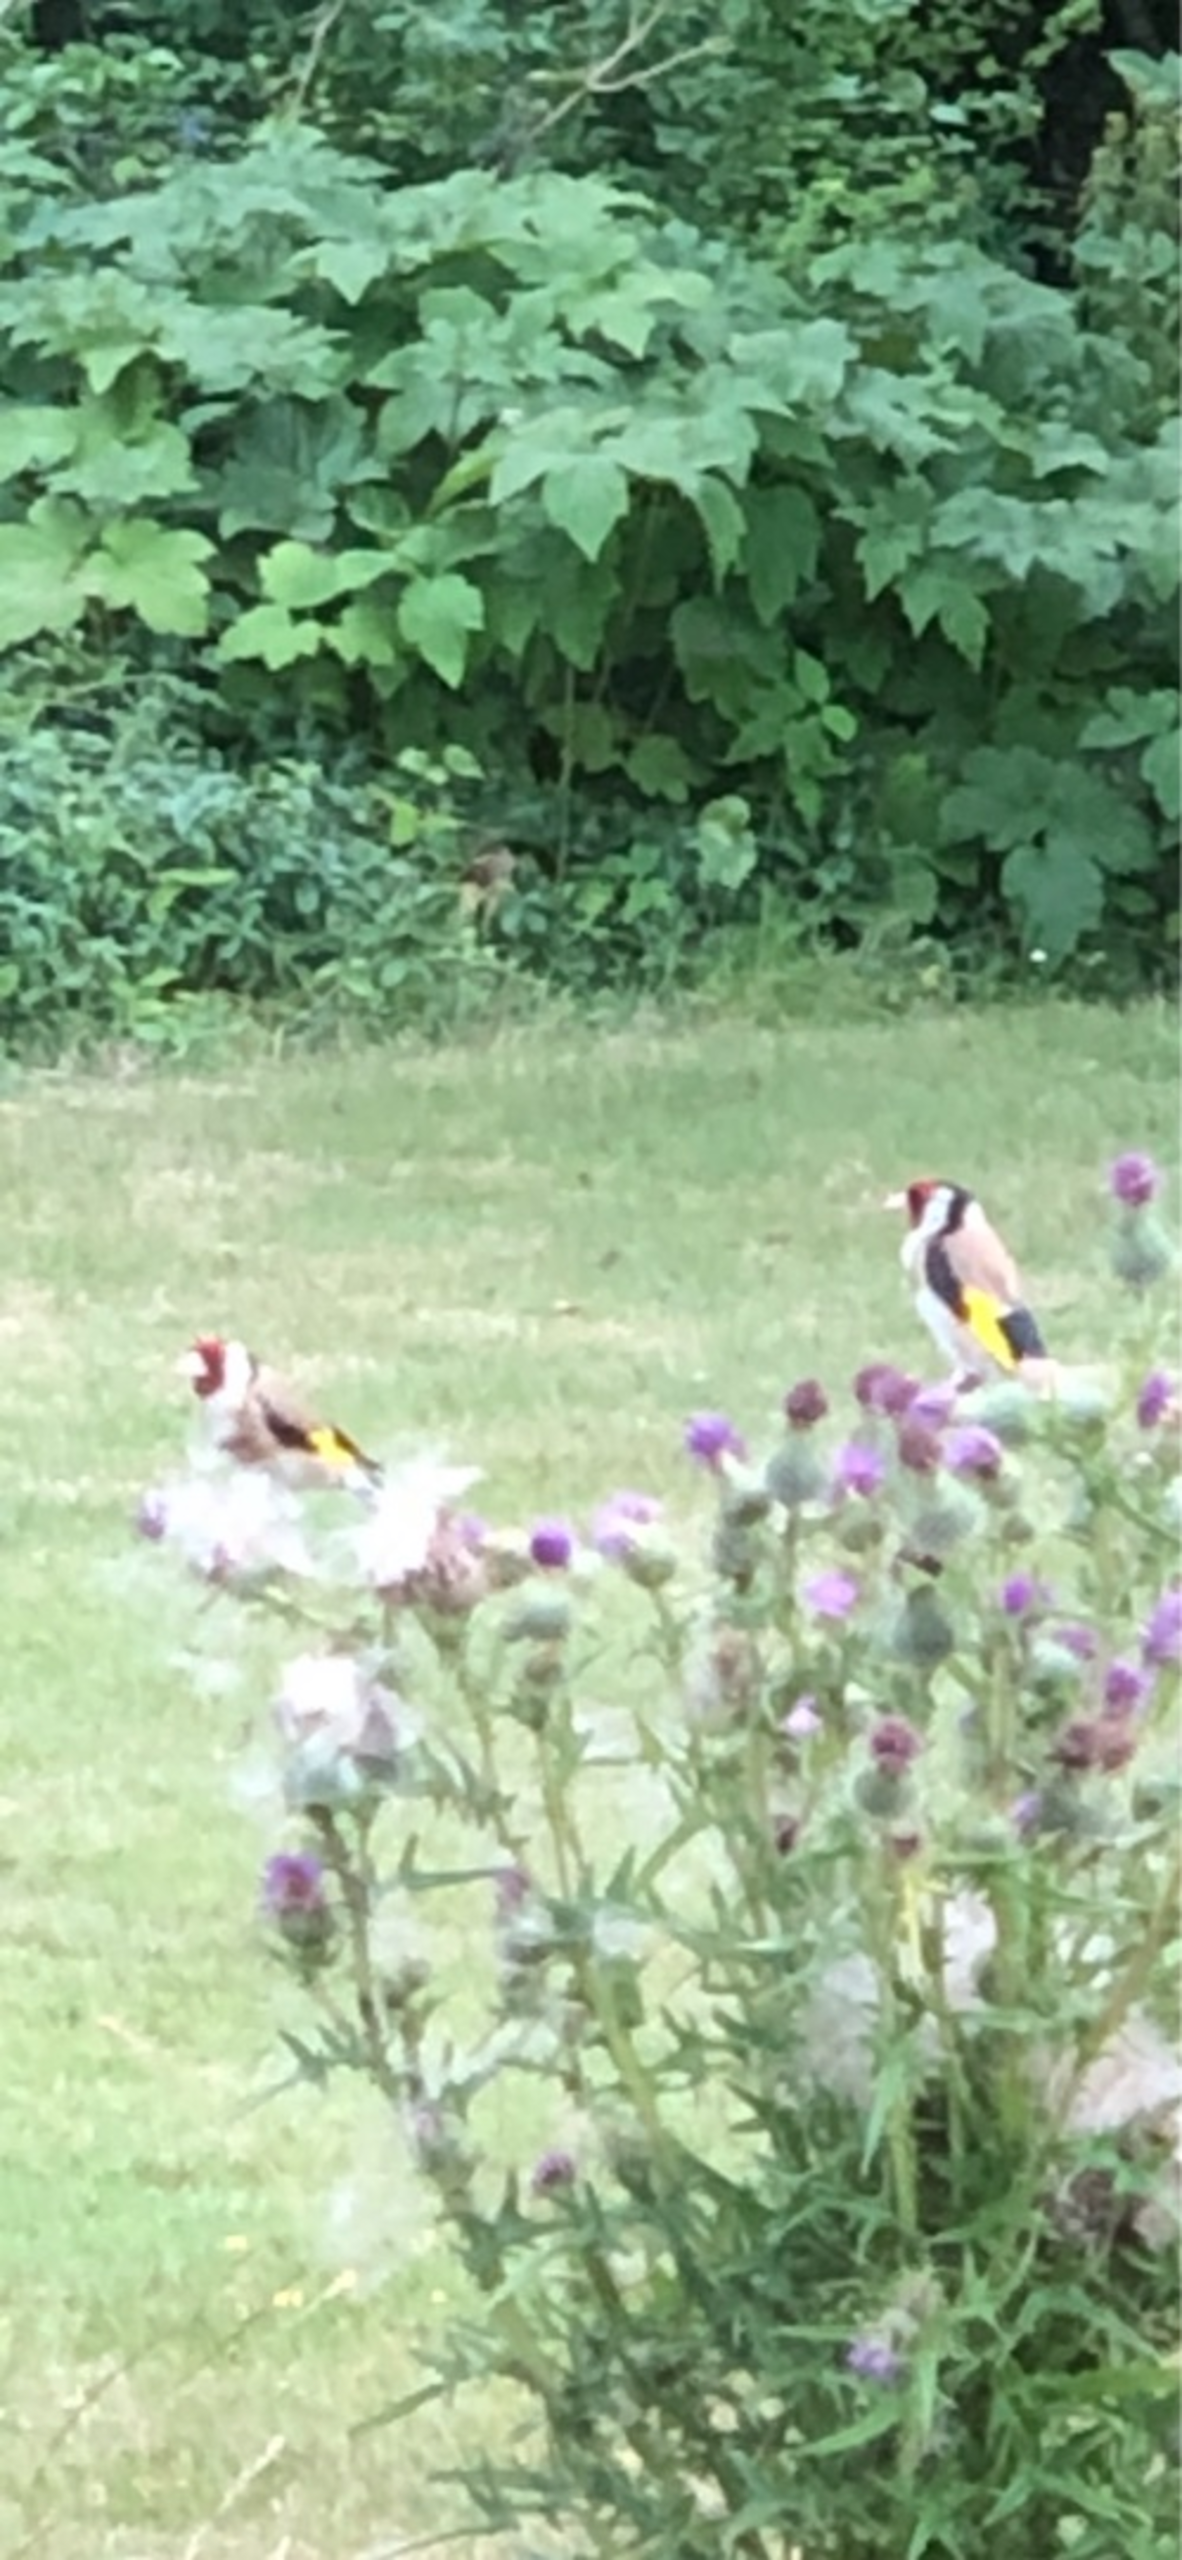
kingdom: Animalia
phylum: Chordata
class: Aves
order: Passeriformes
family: Fringillidae
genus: Carduelis
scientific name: Carduelis carduelis
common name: Stillits
